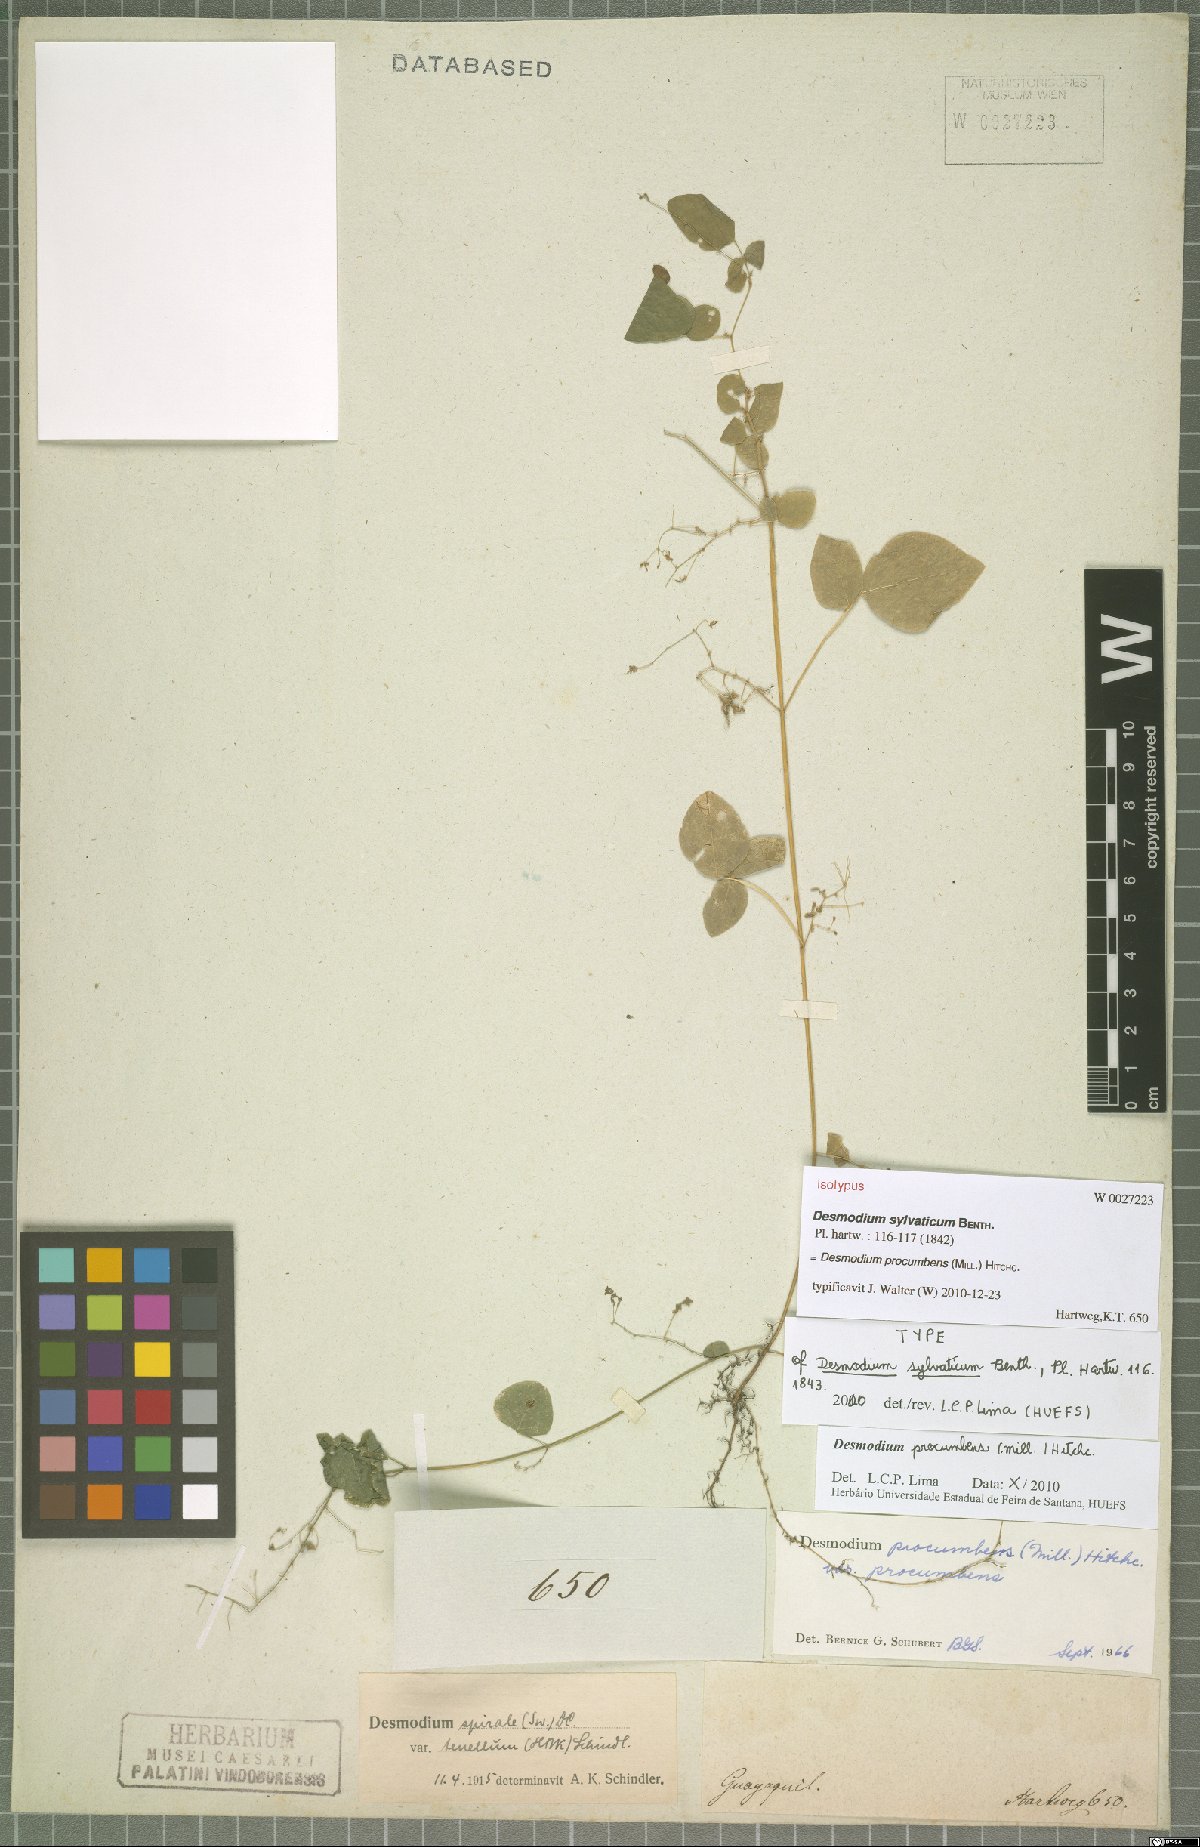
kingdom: Plantae
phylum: Tracheophyta
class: Magnoliopsida
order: Fabales
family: Fabaceae
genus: Desmodium
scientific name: Desmodium procumbens
